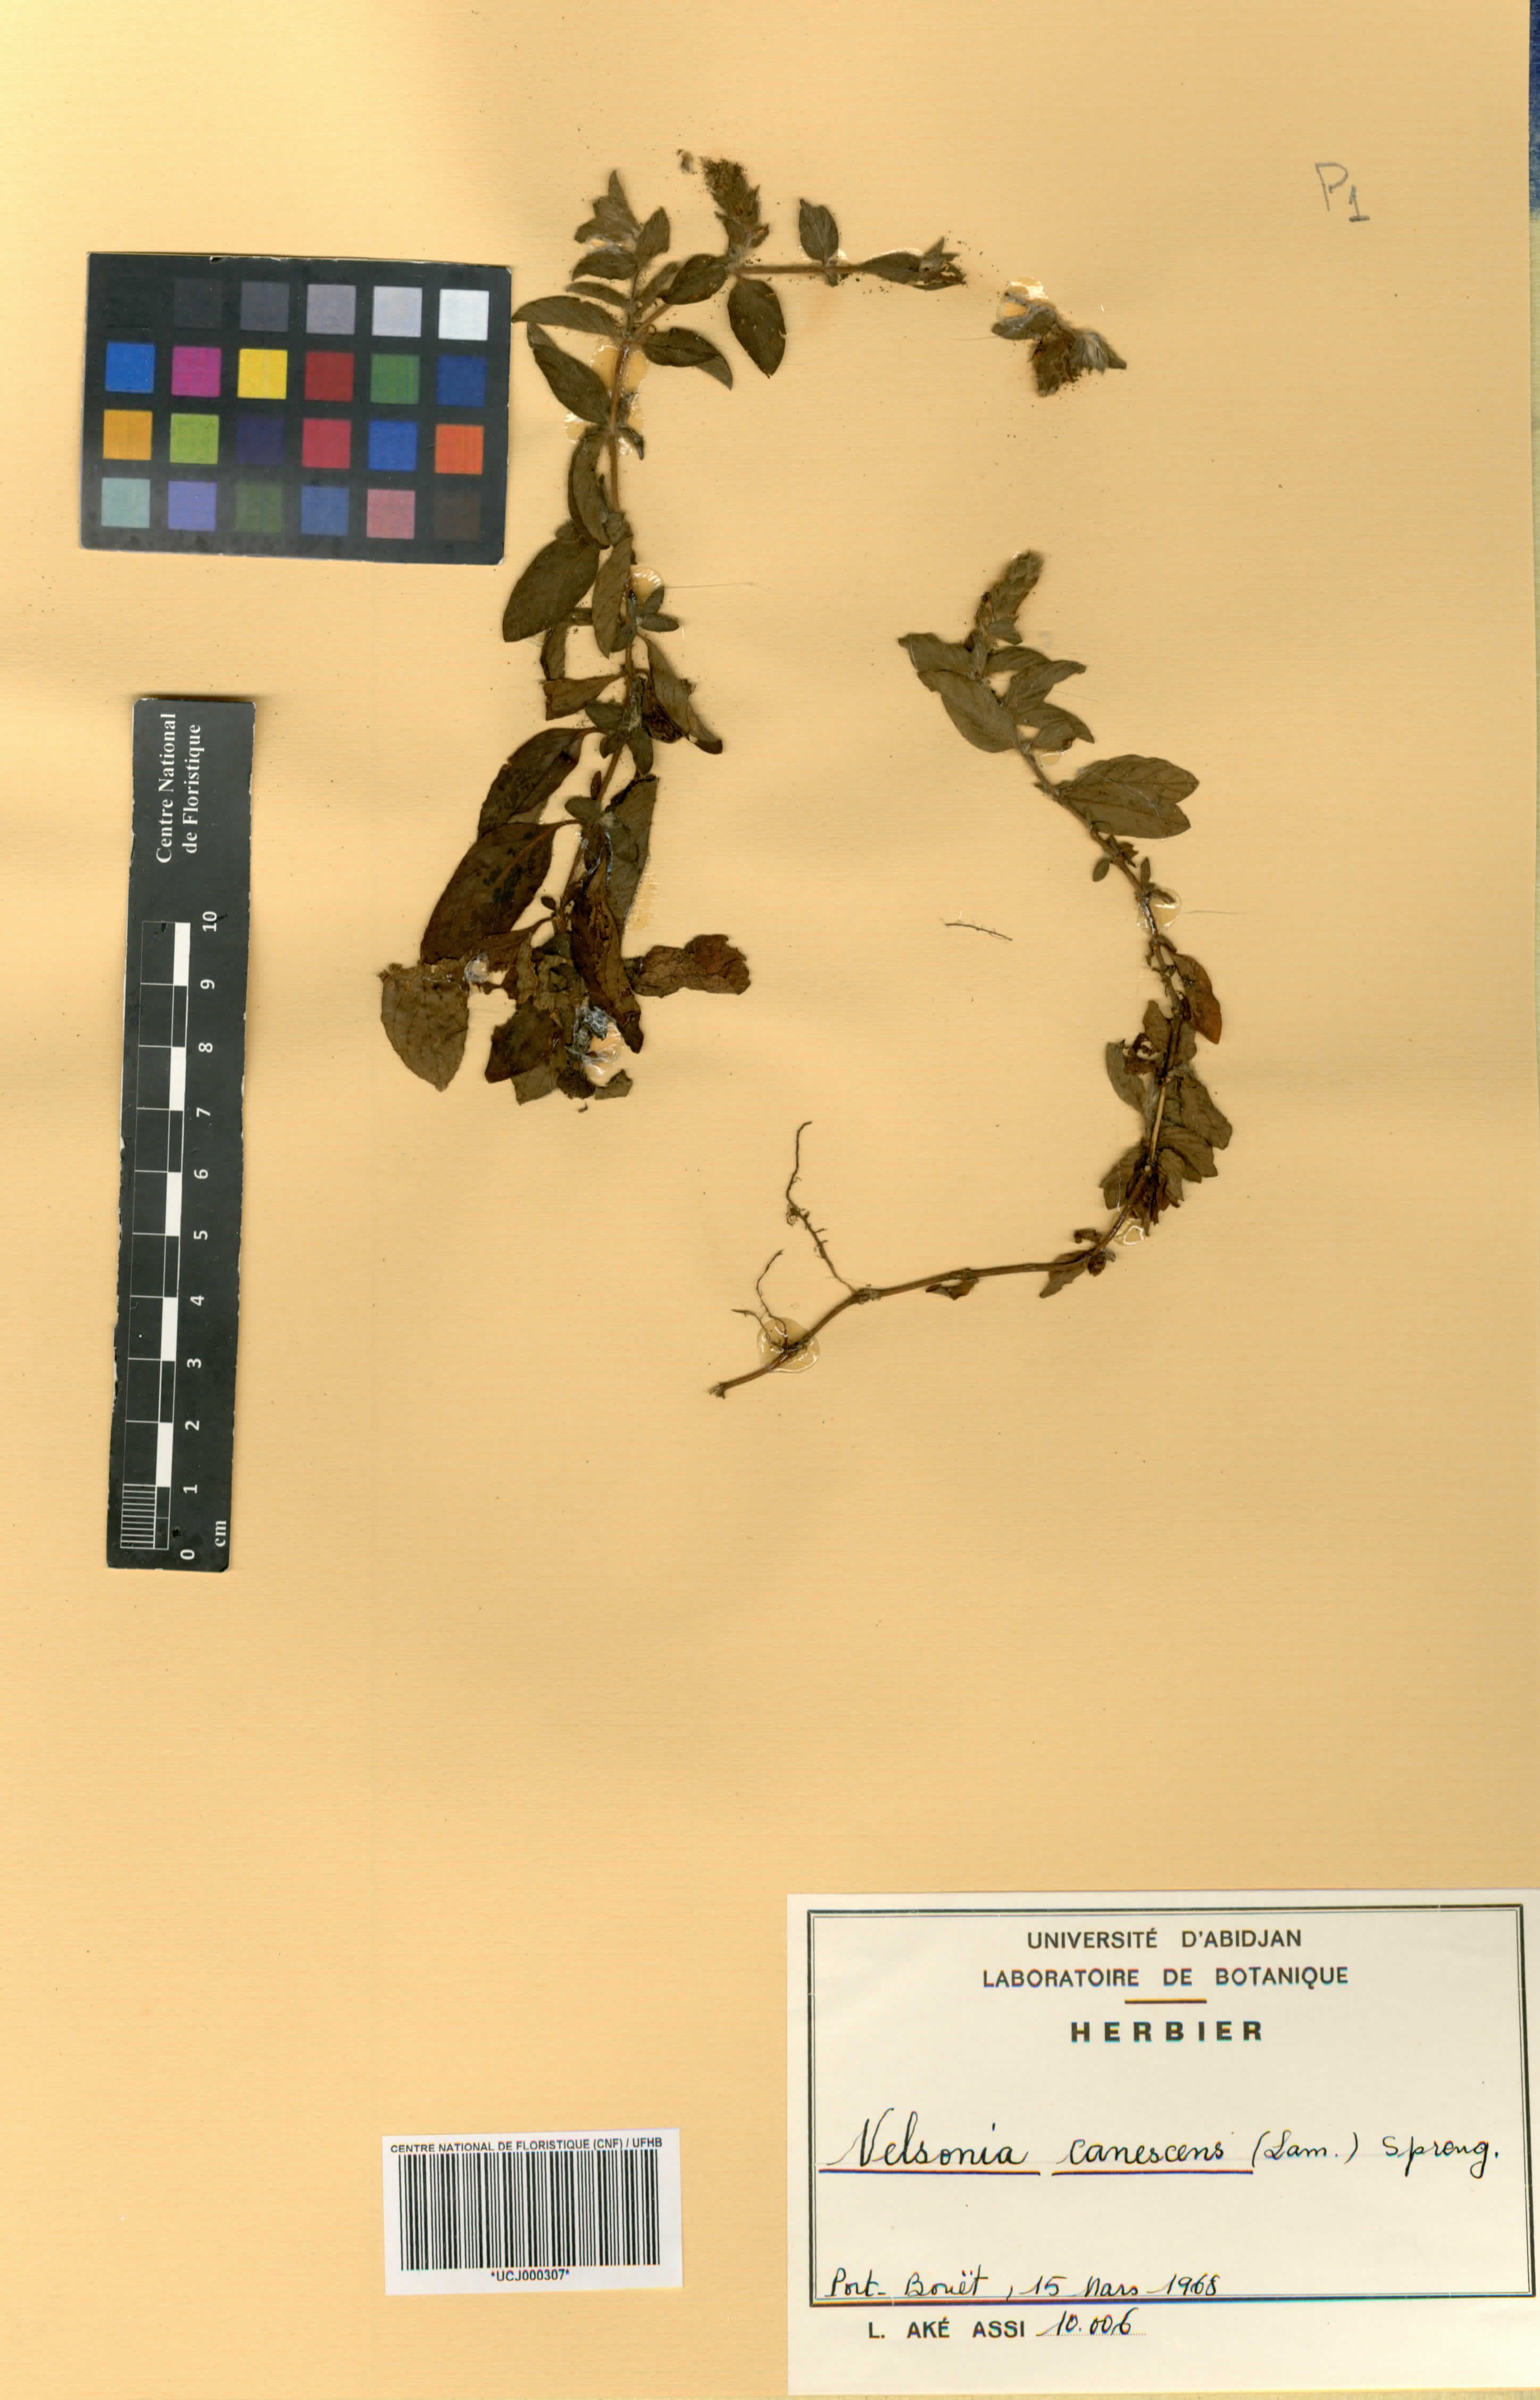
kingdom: Plantae
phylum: Tracheophyta
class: Magnoliopsida
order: Lamiales
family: Acanthaceae
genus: Nelsonia
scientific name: Nelsonia canescens
